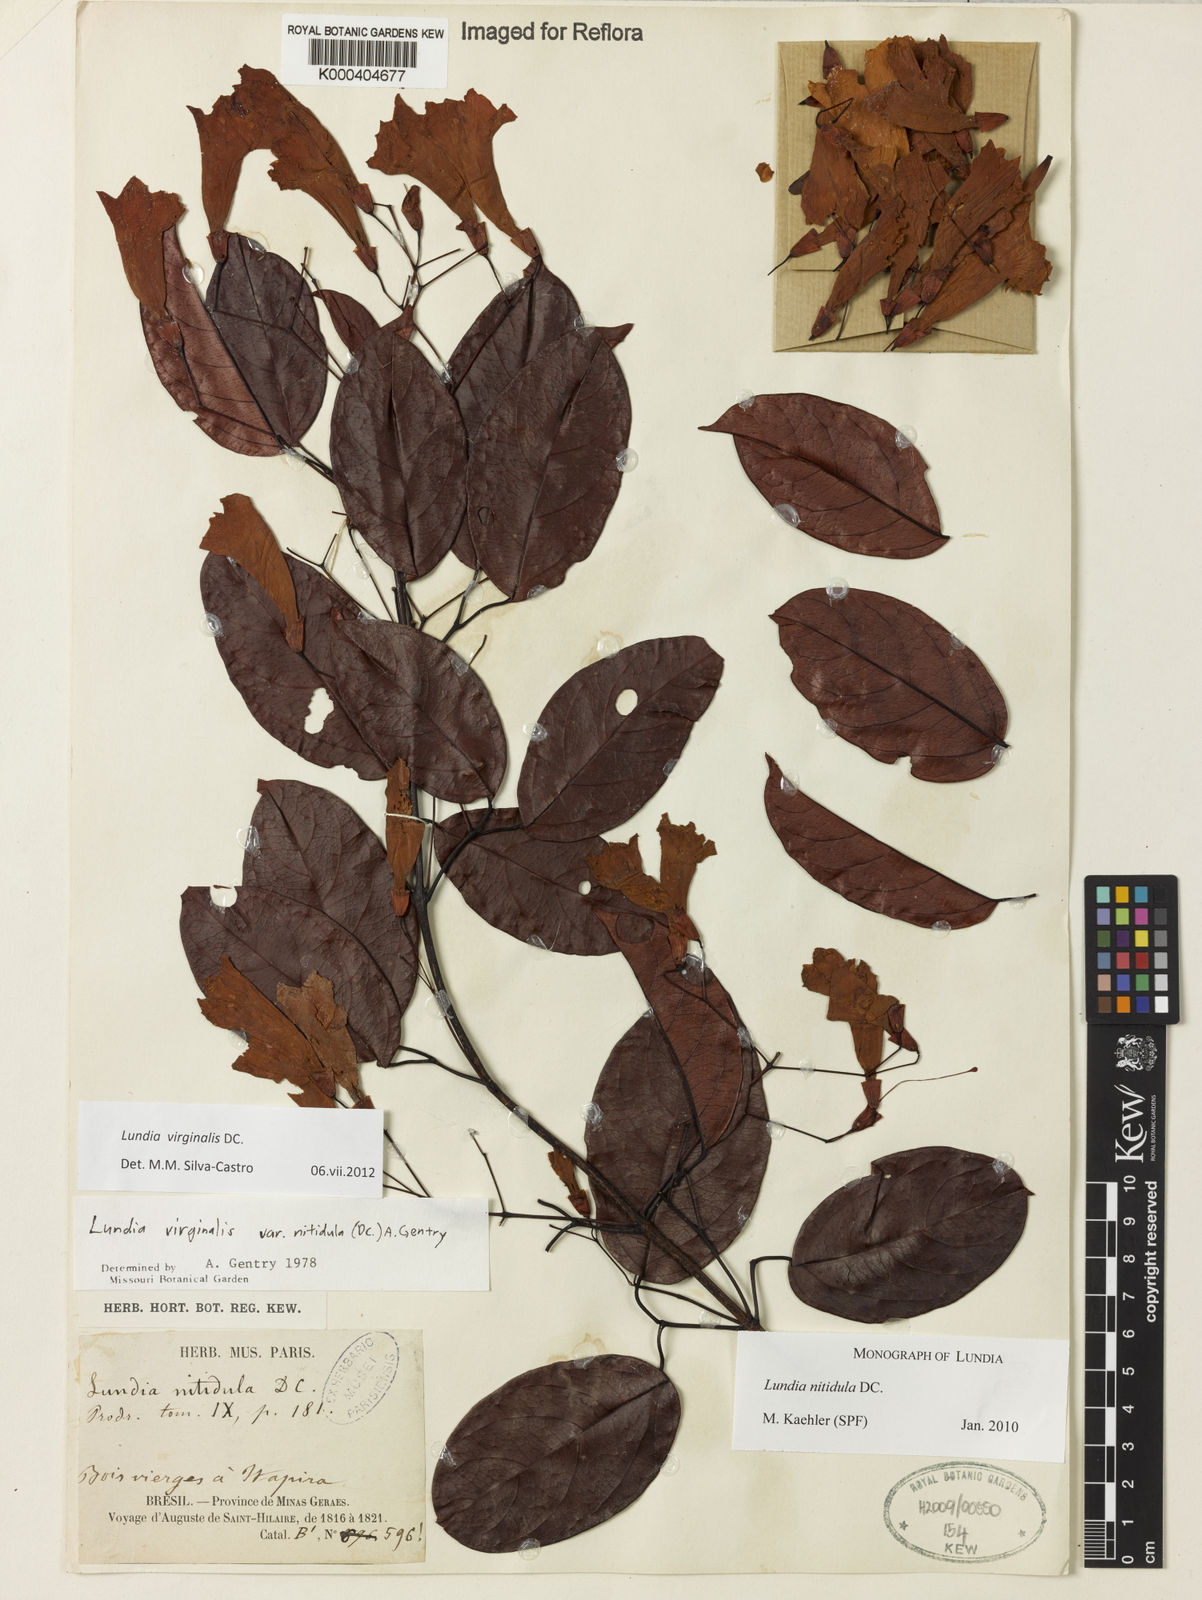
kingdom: Plantae
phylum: Tracheophyta
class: Magnoliopsida
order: Lamiales
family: Bignoniaceae
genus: Lundia
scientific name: Lundia virginalis
